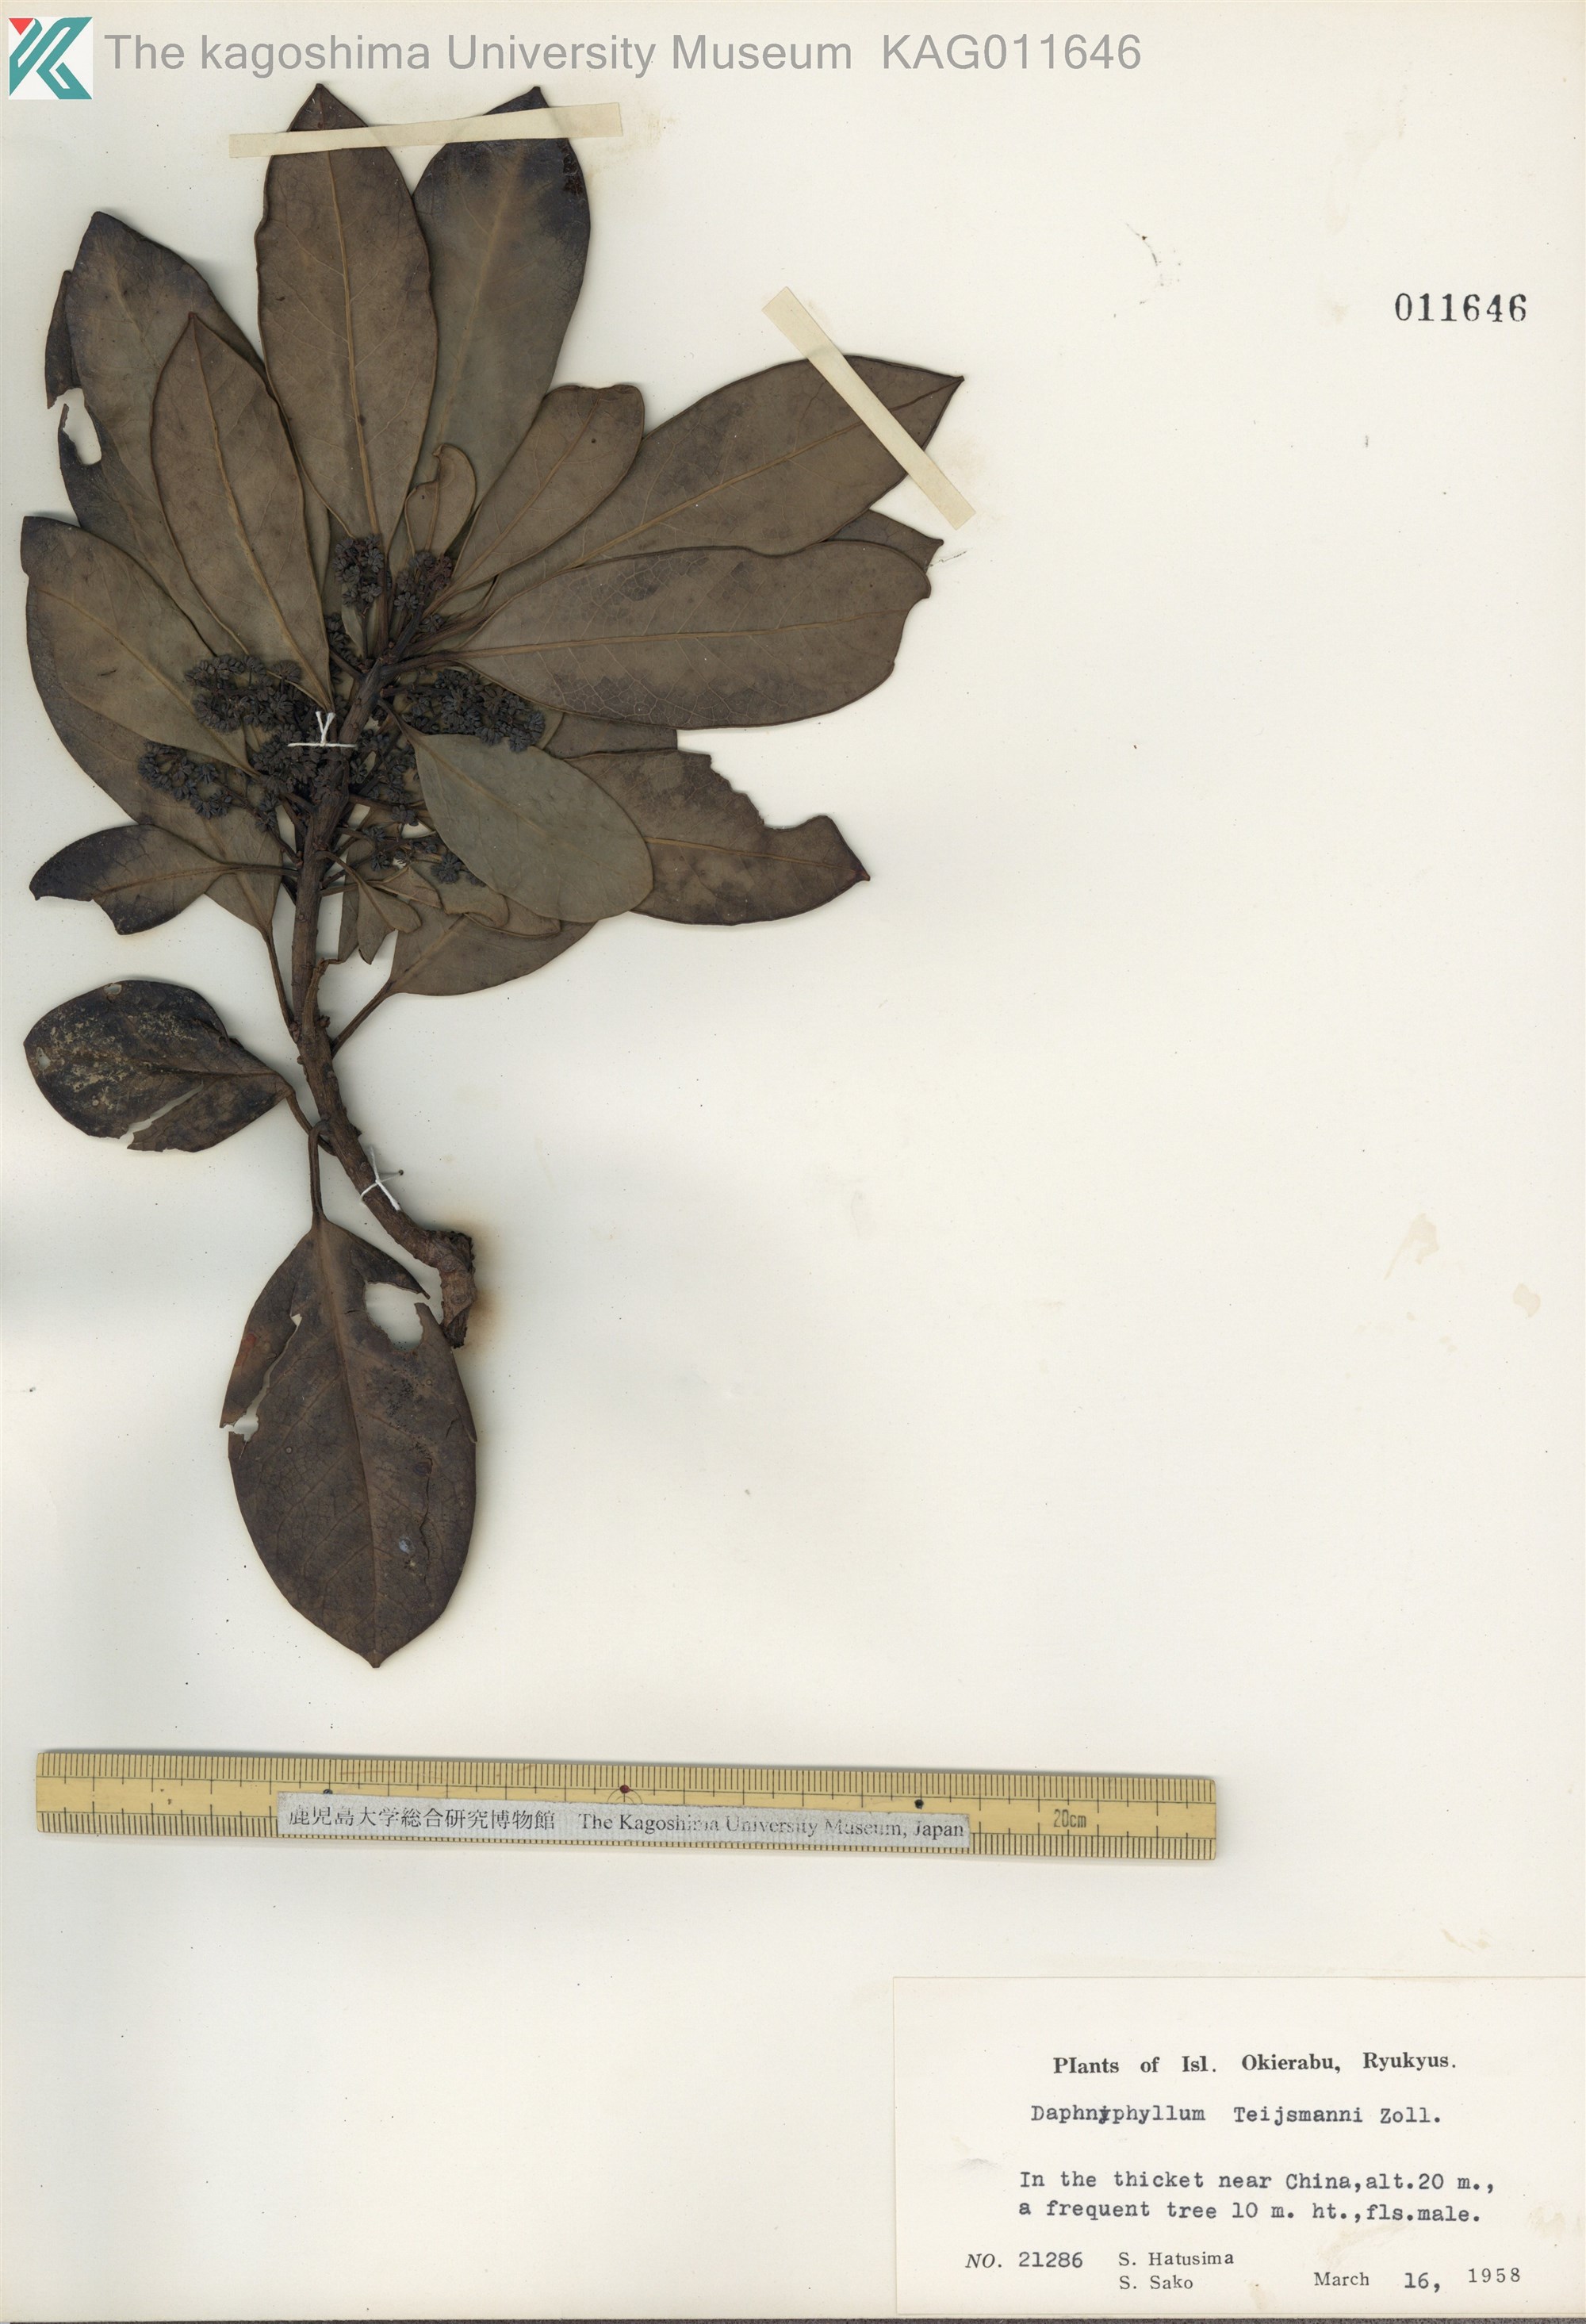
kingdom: Plantae
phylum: Tracheophyta
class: Magnoliopsida
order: Saxifragales
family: Daphniphyllaceae
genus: Daphniphyllum
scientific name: Daphniphyllum teijsmannii
